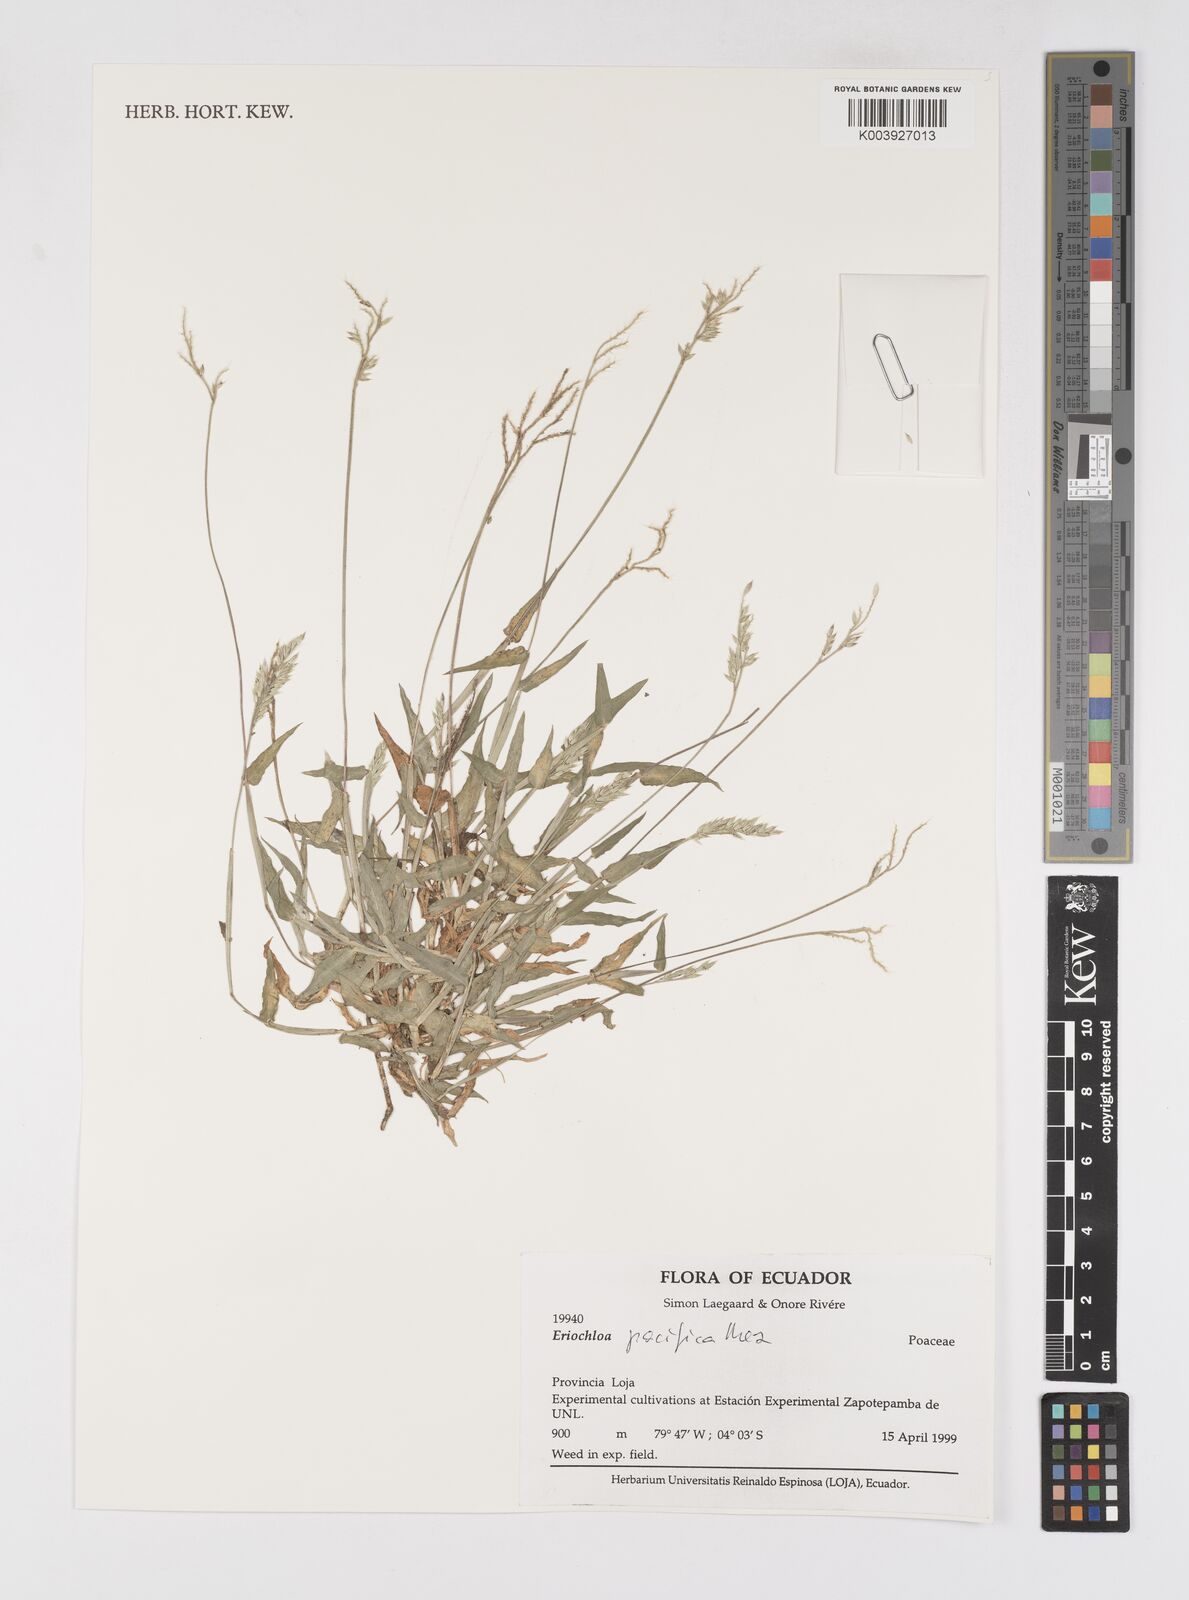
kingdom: Plantae
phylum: Tracheophyta
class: Liliopsida
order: Poales
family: Poaceae
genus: Eriochloa
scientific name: Eriochloa pacifica
